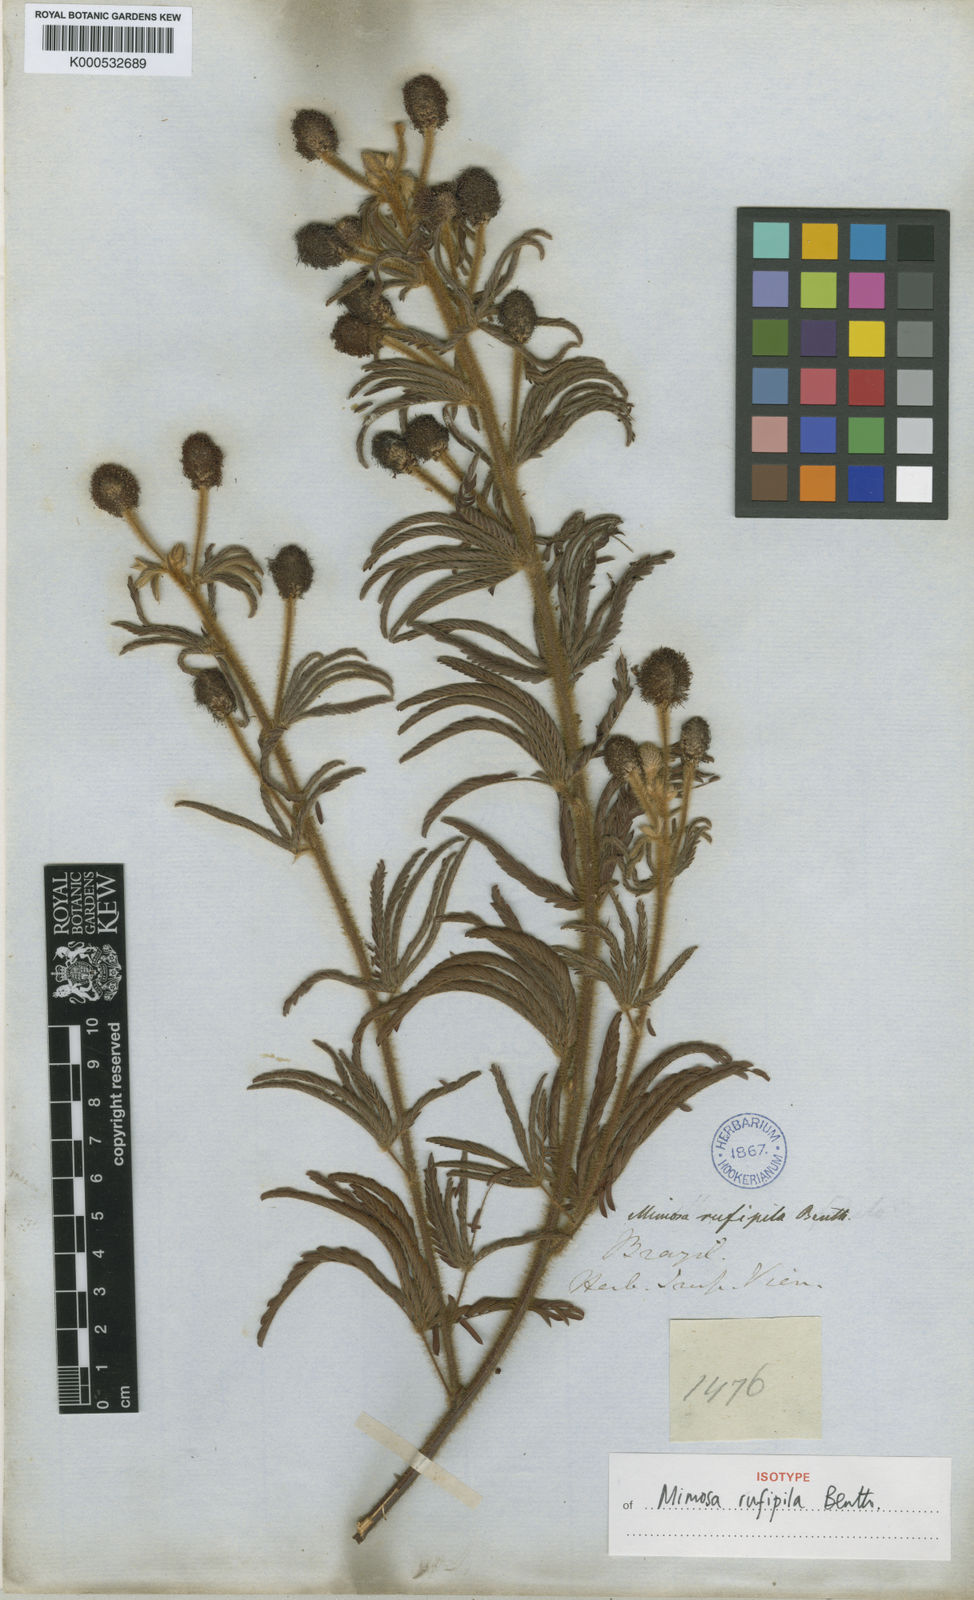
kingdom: Plantae
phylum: Tracheophyta
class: Magnoliopsida
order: Fabales
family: Fabaceae
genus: Mimosa
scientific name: Mimosa rufipila
